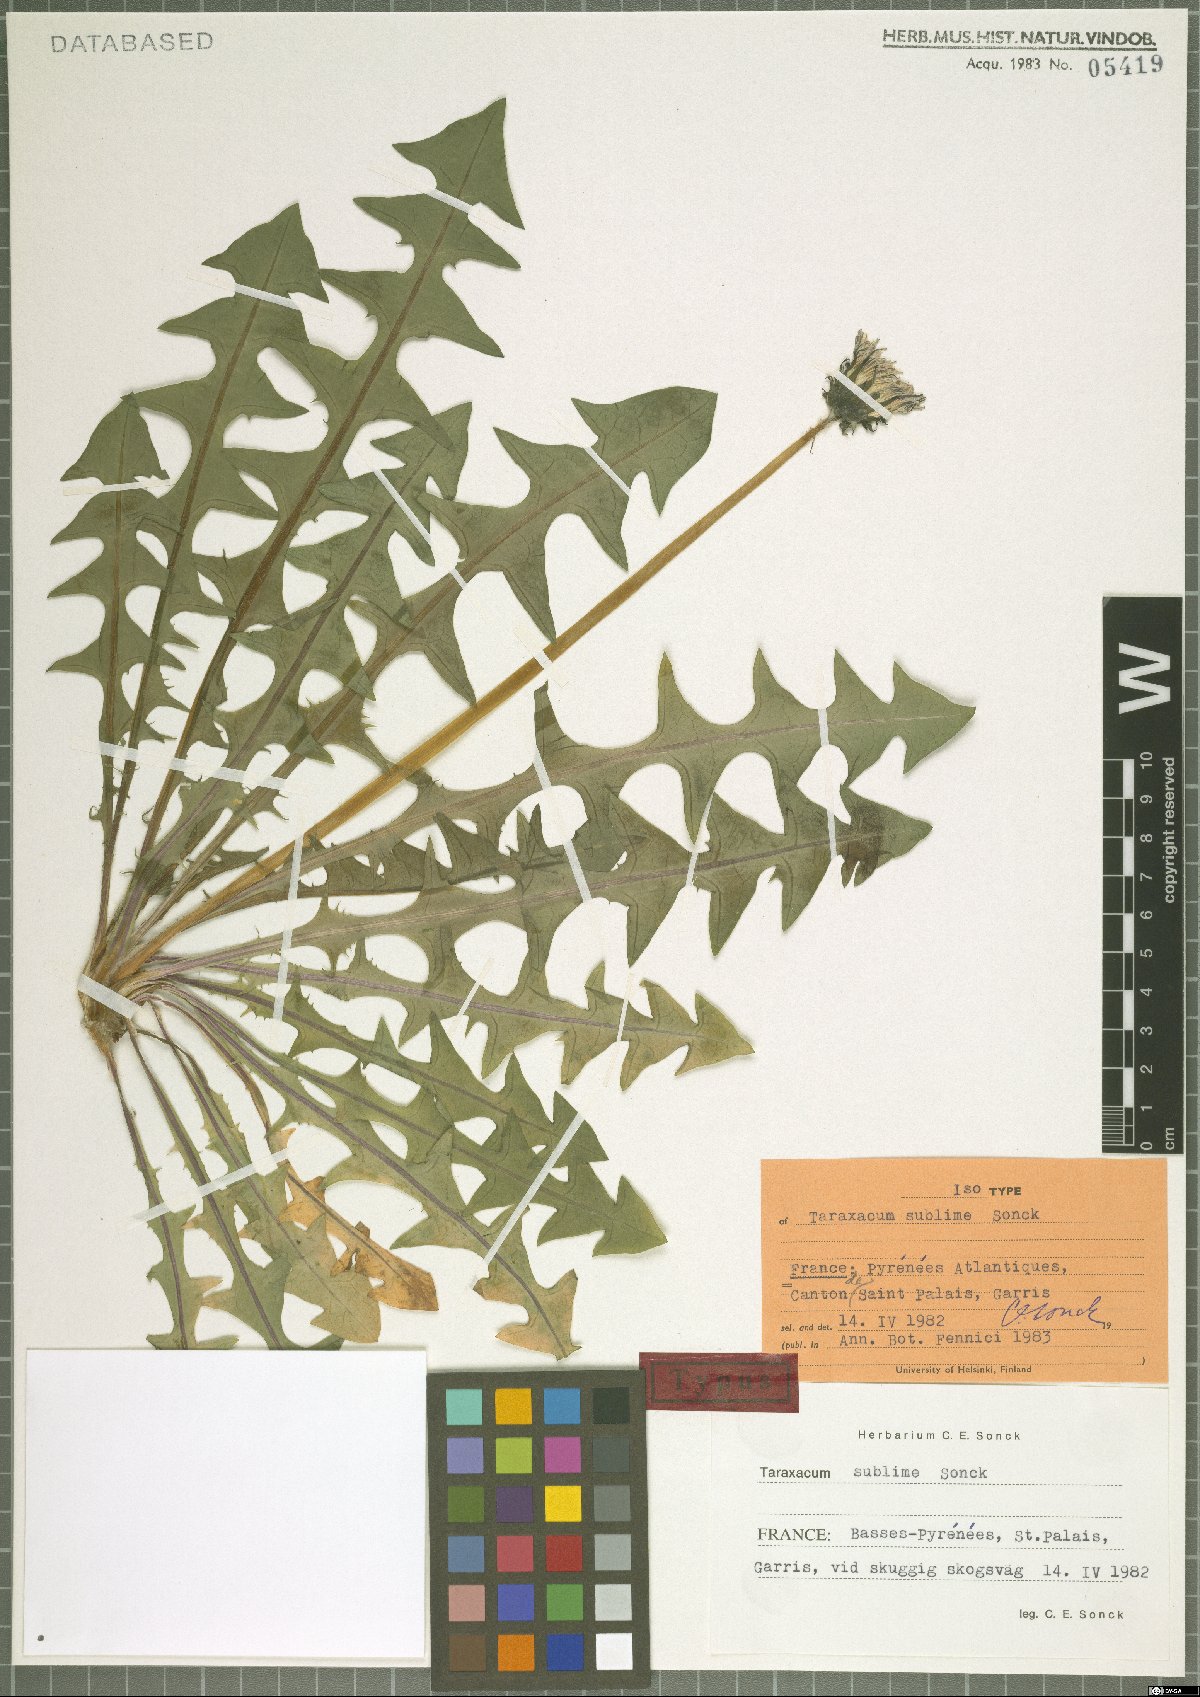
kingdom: Plantae
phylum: Tracheophyta
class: Magnoliopsida
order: Asterales
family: Asteraceae
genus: Taraxacum
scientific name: Taraxacum sublime
